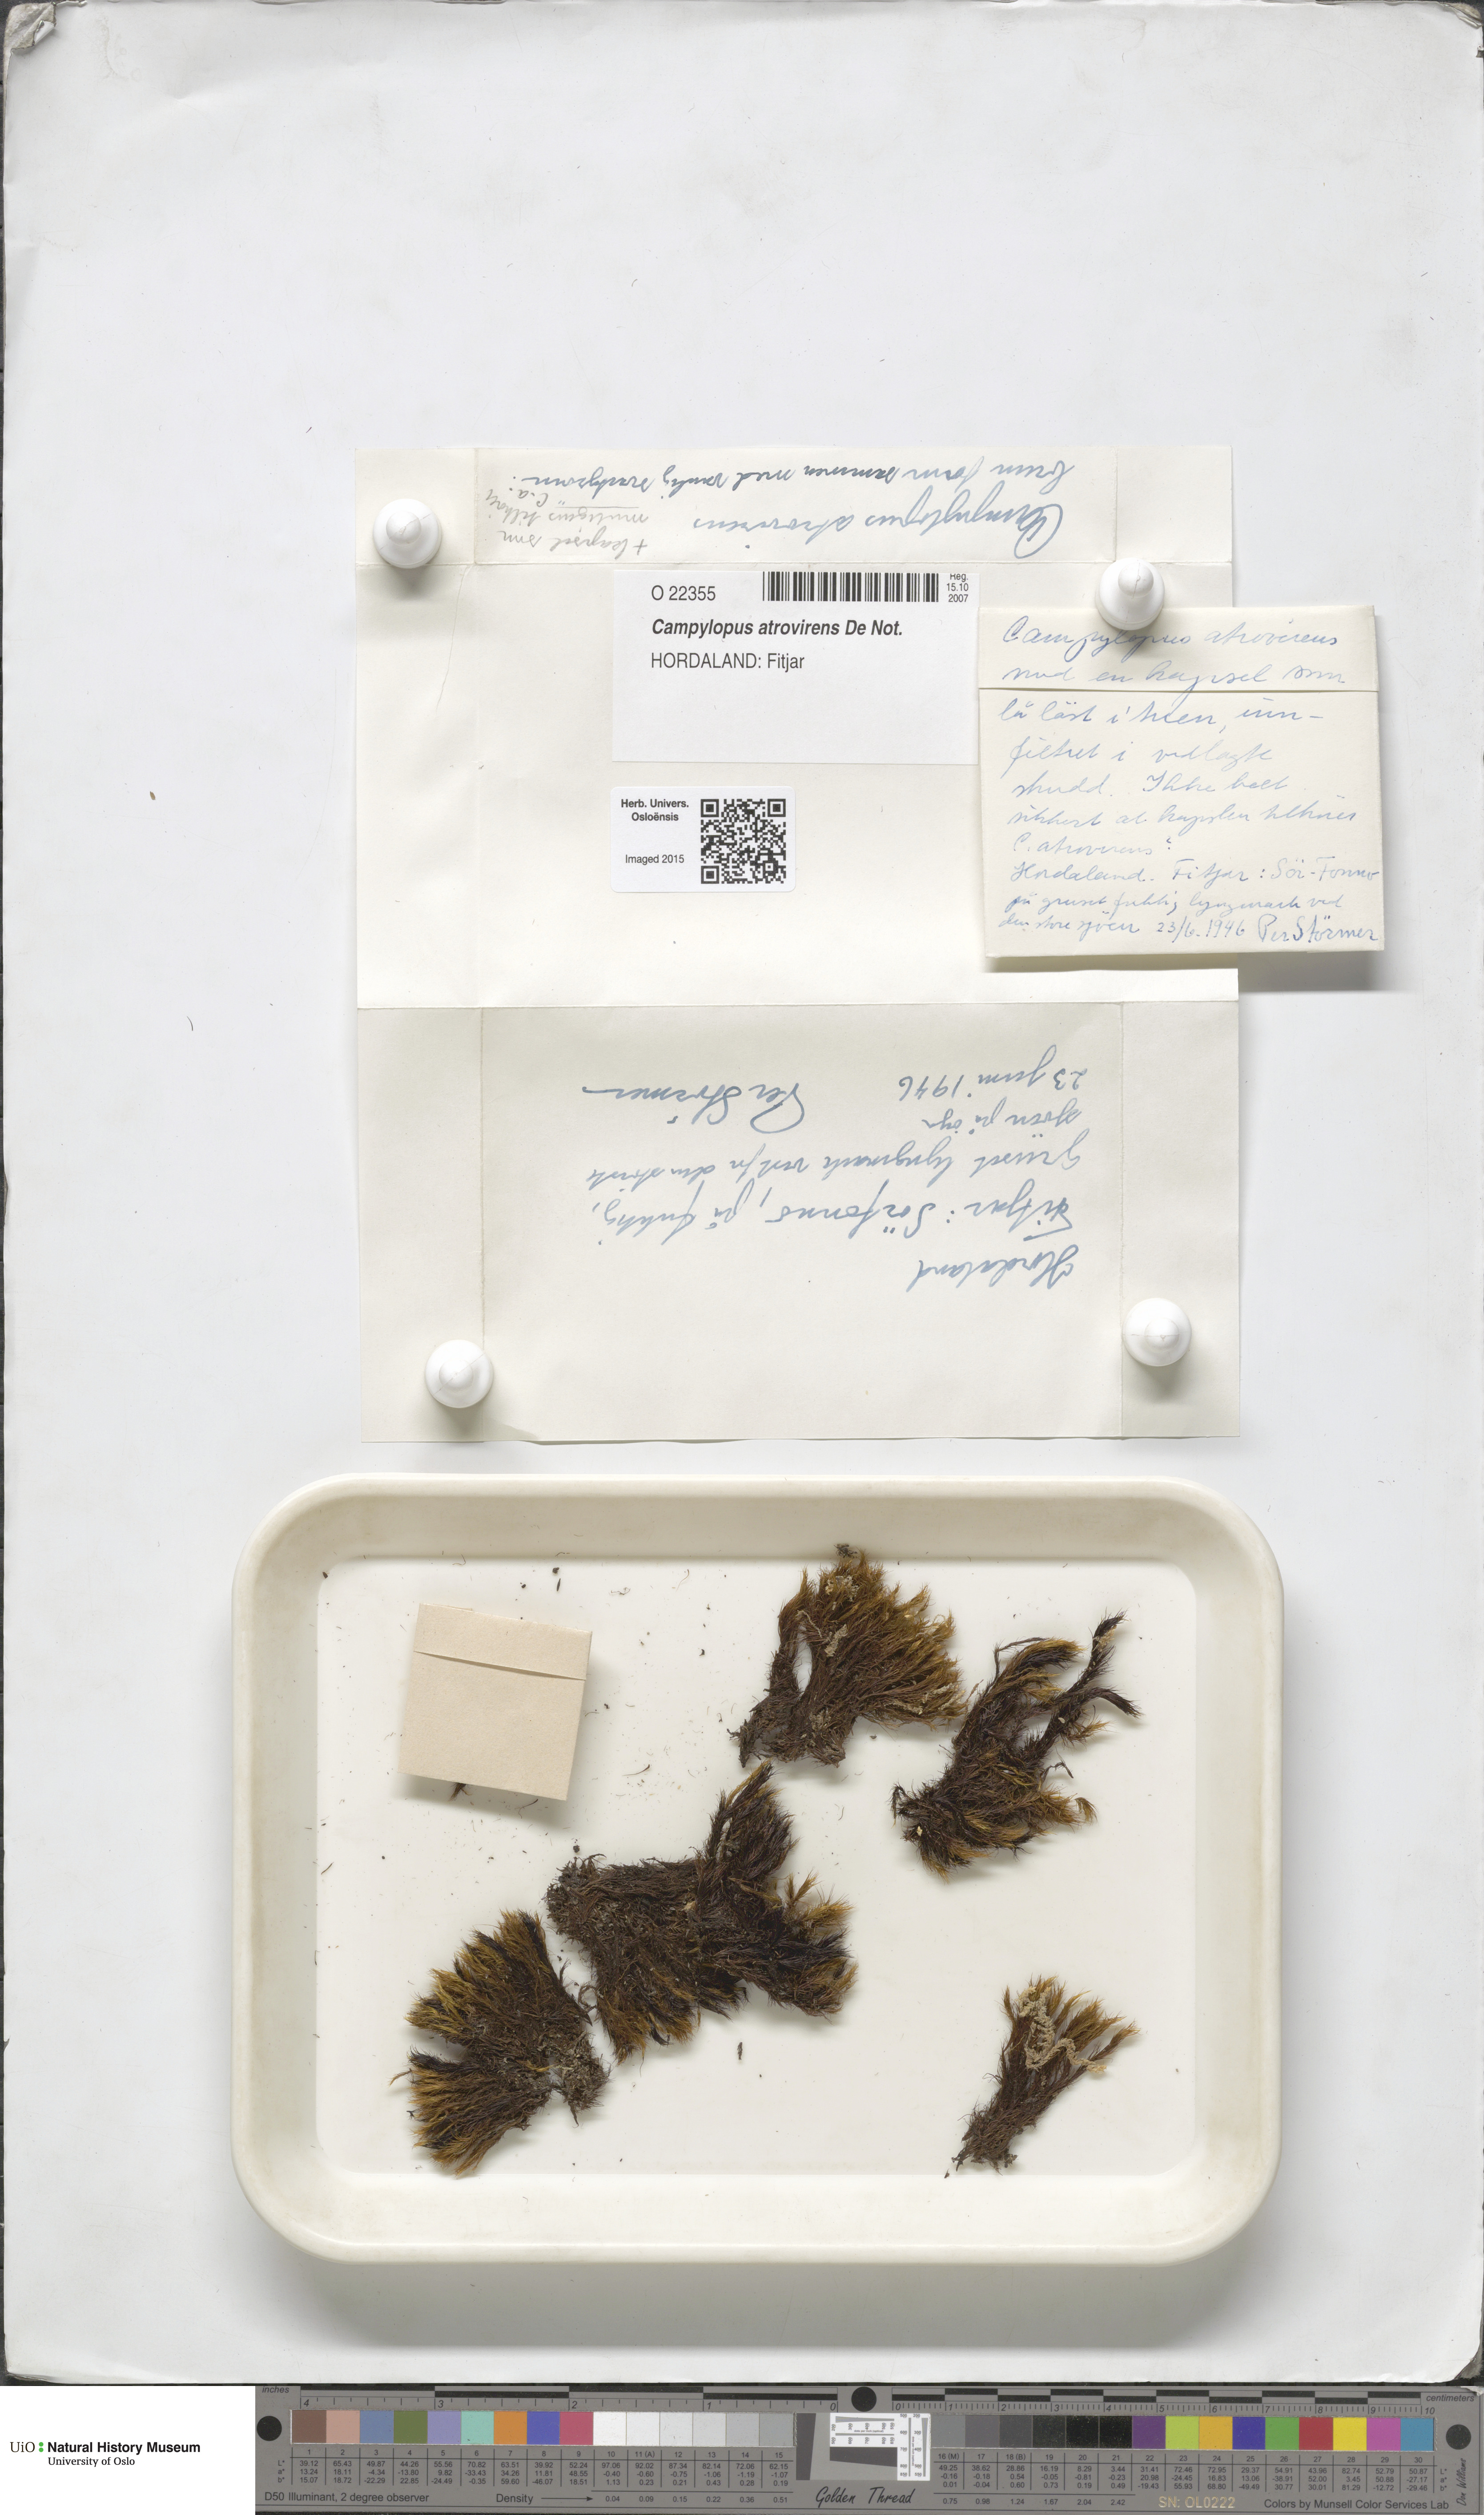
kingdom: Plantae
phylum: Bryophyta
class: Bryopsida
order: Dicranales
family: Leucobryaceae
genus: Campylopus
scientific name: Campylopus atrovirens
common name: Bristly swan-neck moss
